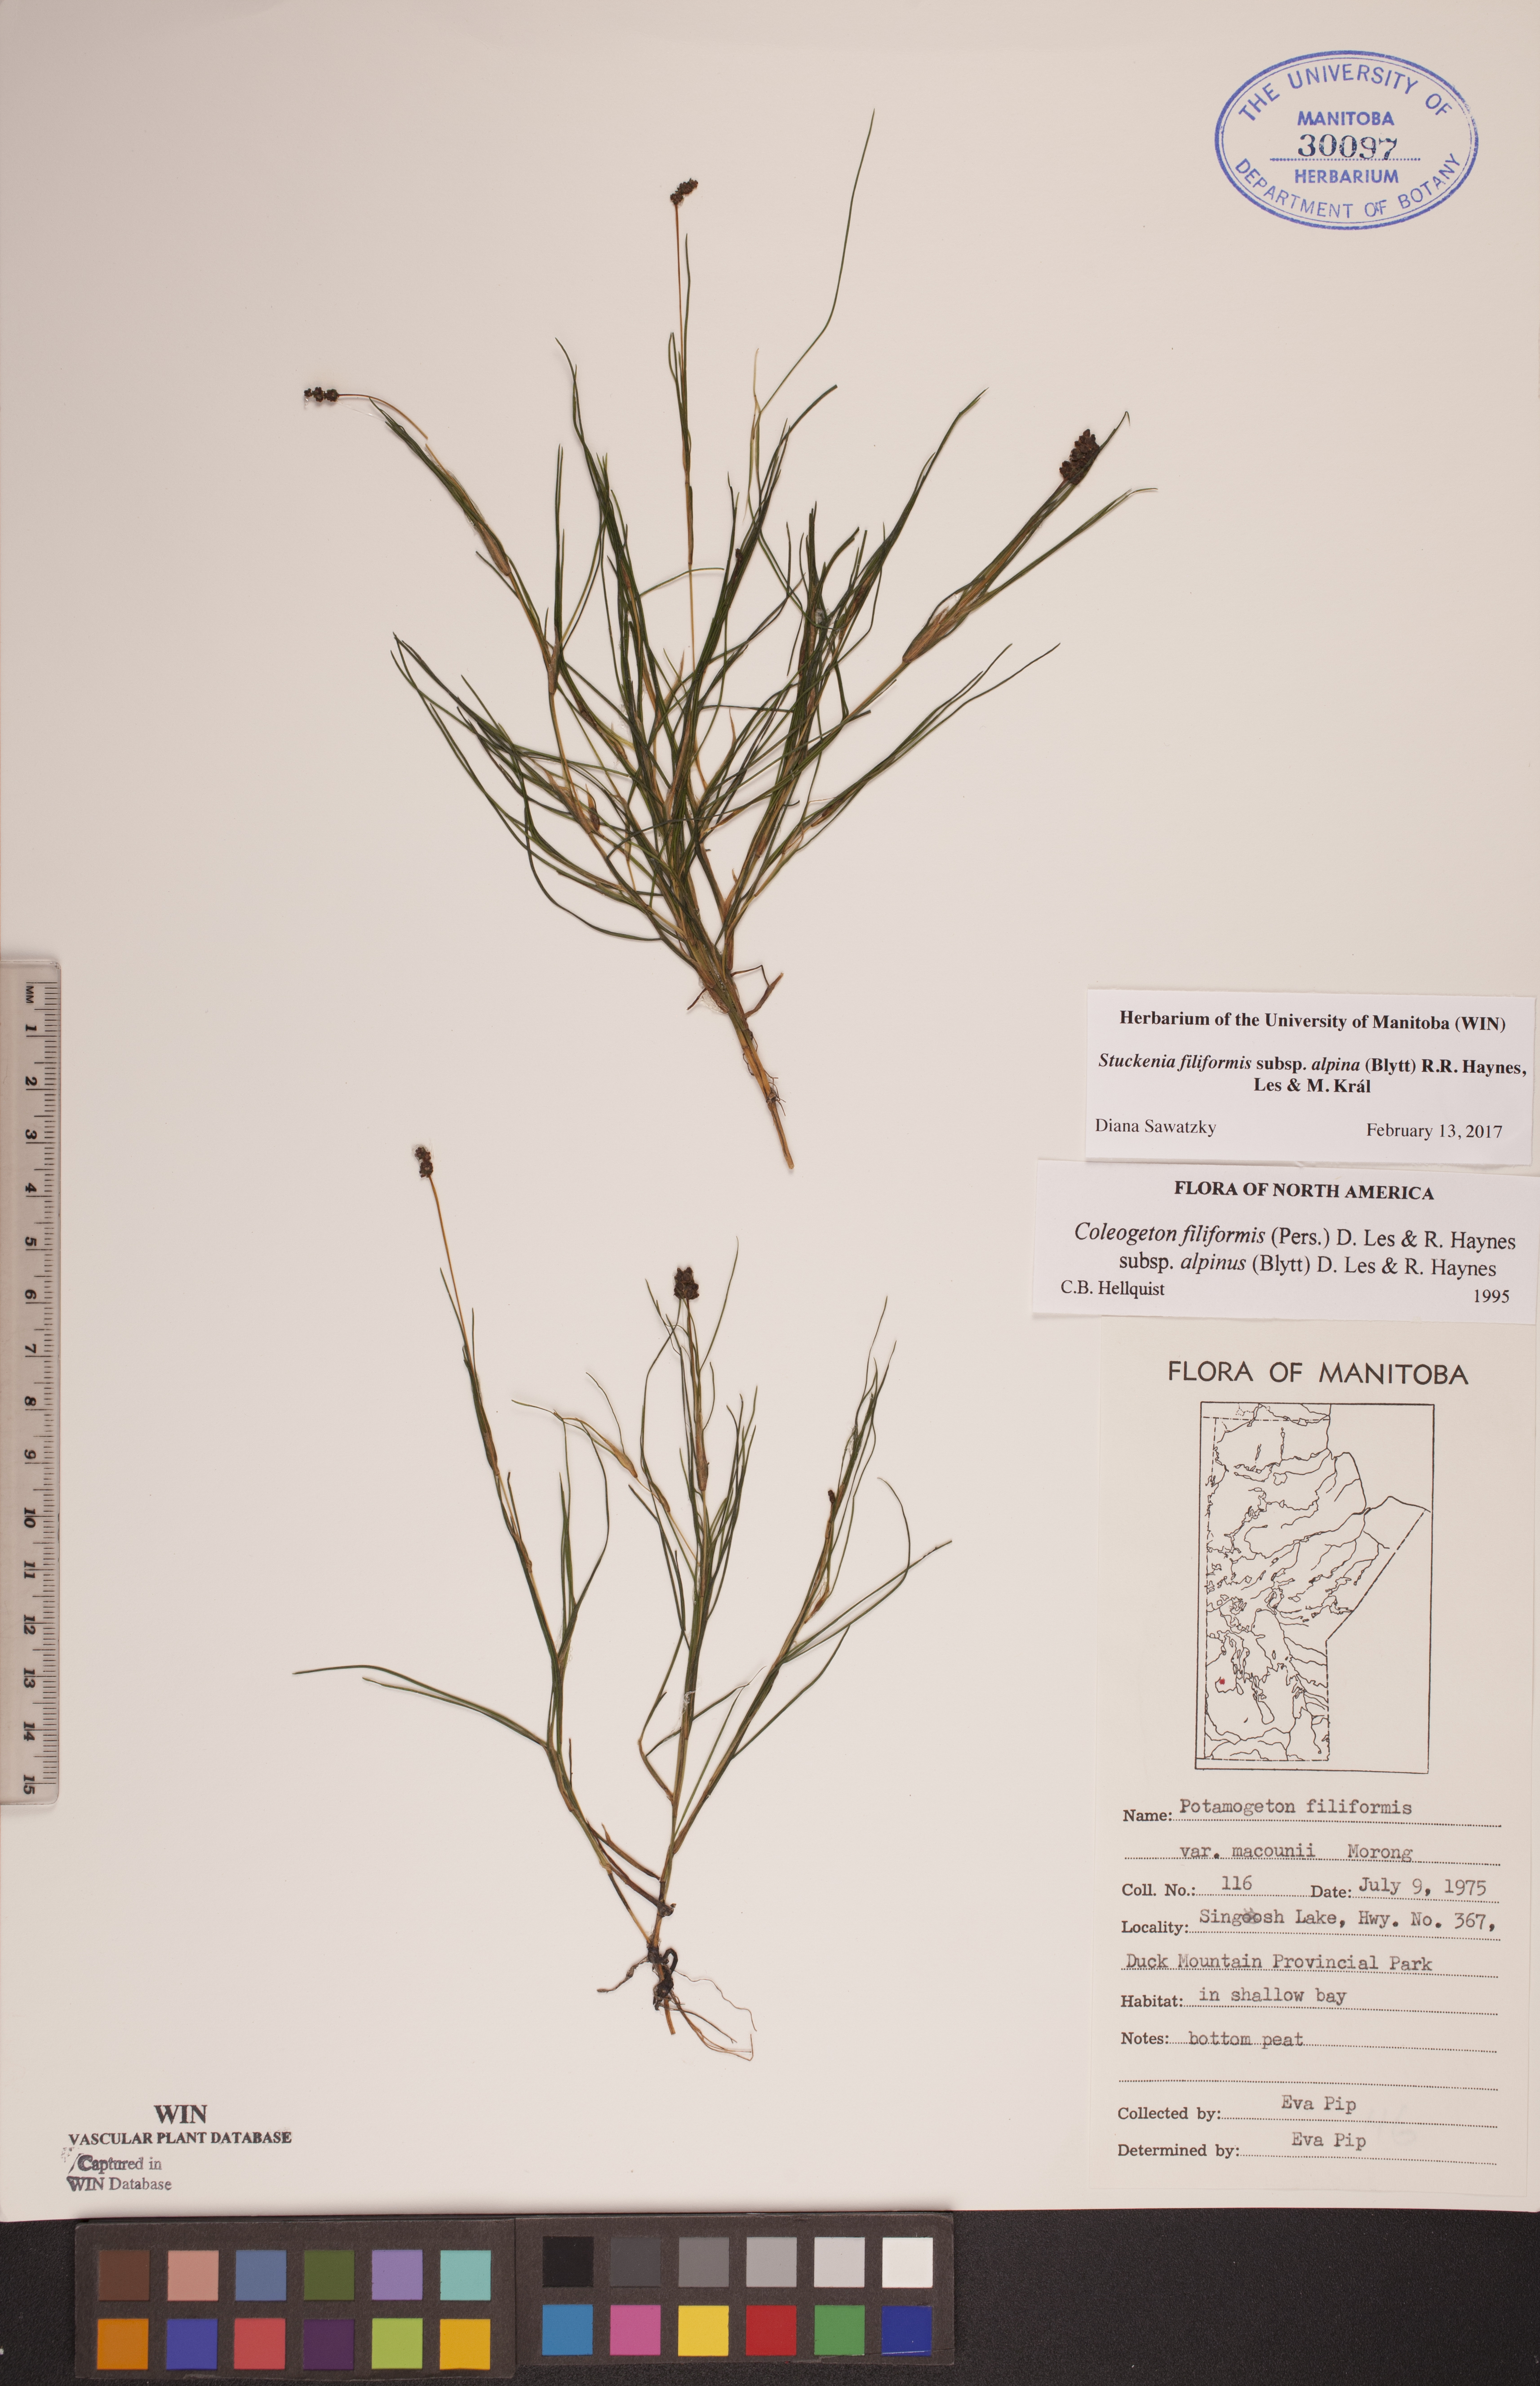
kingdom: Plantae
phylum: Tracheophyta
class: Liliopsida
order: Alismatales
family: Potamogetonaceae
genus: Stuckenia
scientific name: Stuckenia filiformis
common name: Alpine thread-leaved pondweed
